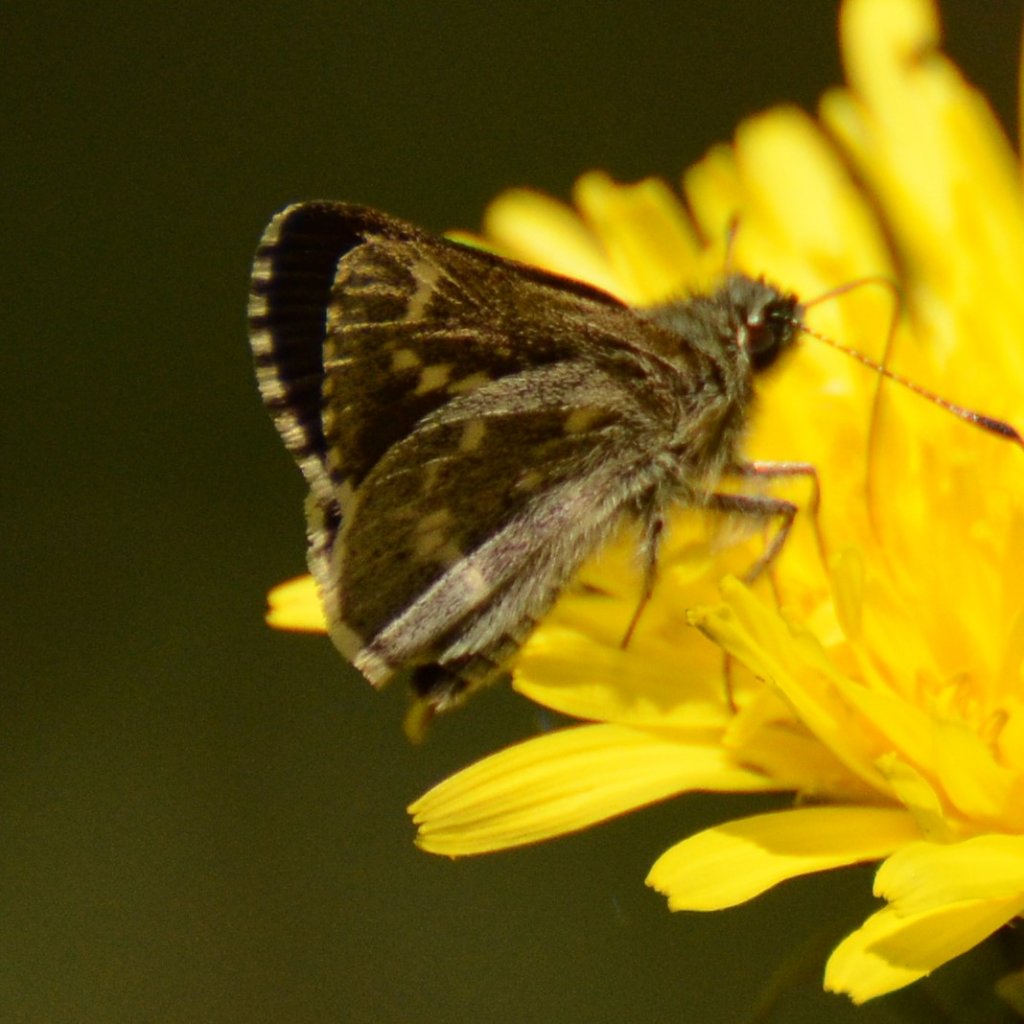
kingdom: Animalia
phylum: Arthropoda
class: Insecta
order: Lepidoptera
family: Hesperiidae
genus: Mastor
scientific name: Mastor hegon
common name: Pepper and Salt Skipper
